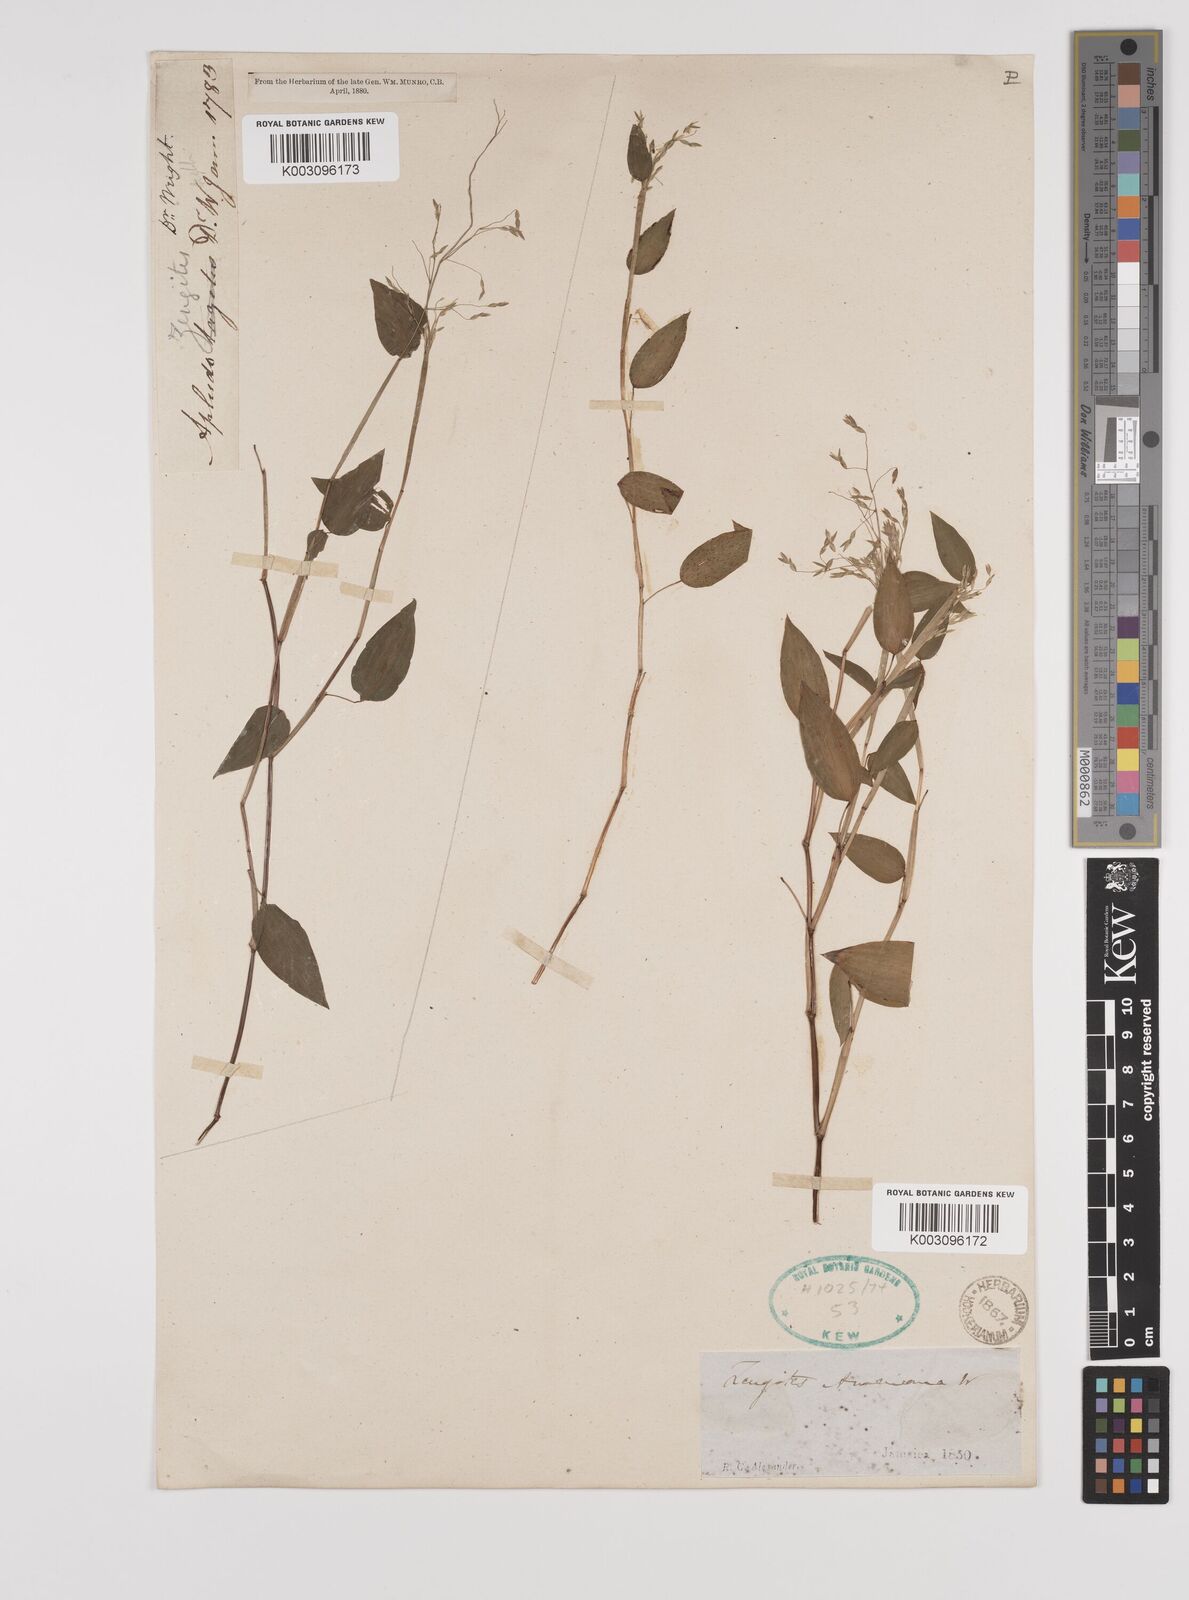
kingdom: Plantae
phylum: Tracheophyta
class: Liliopsida
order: Poales
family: Poaceae
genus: Zeugites
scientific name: Zeugites americanus
